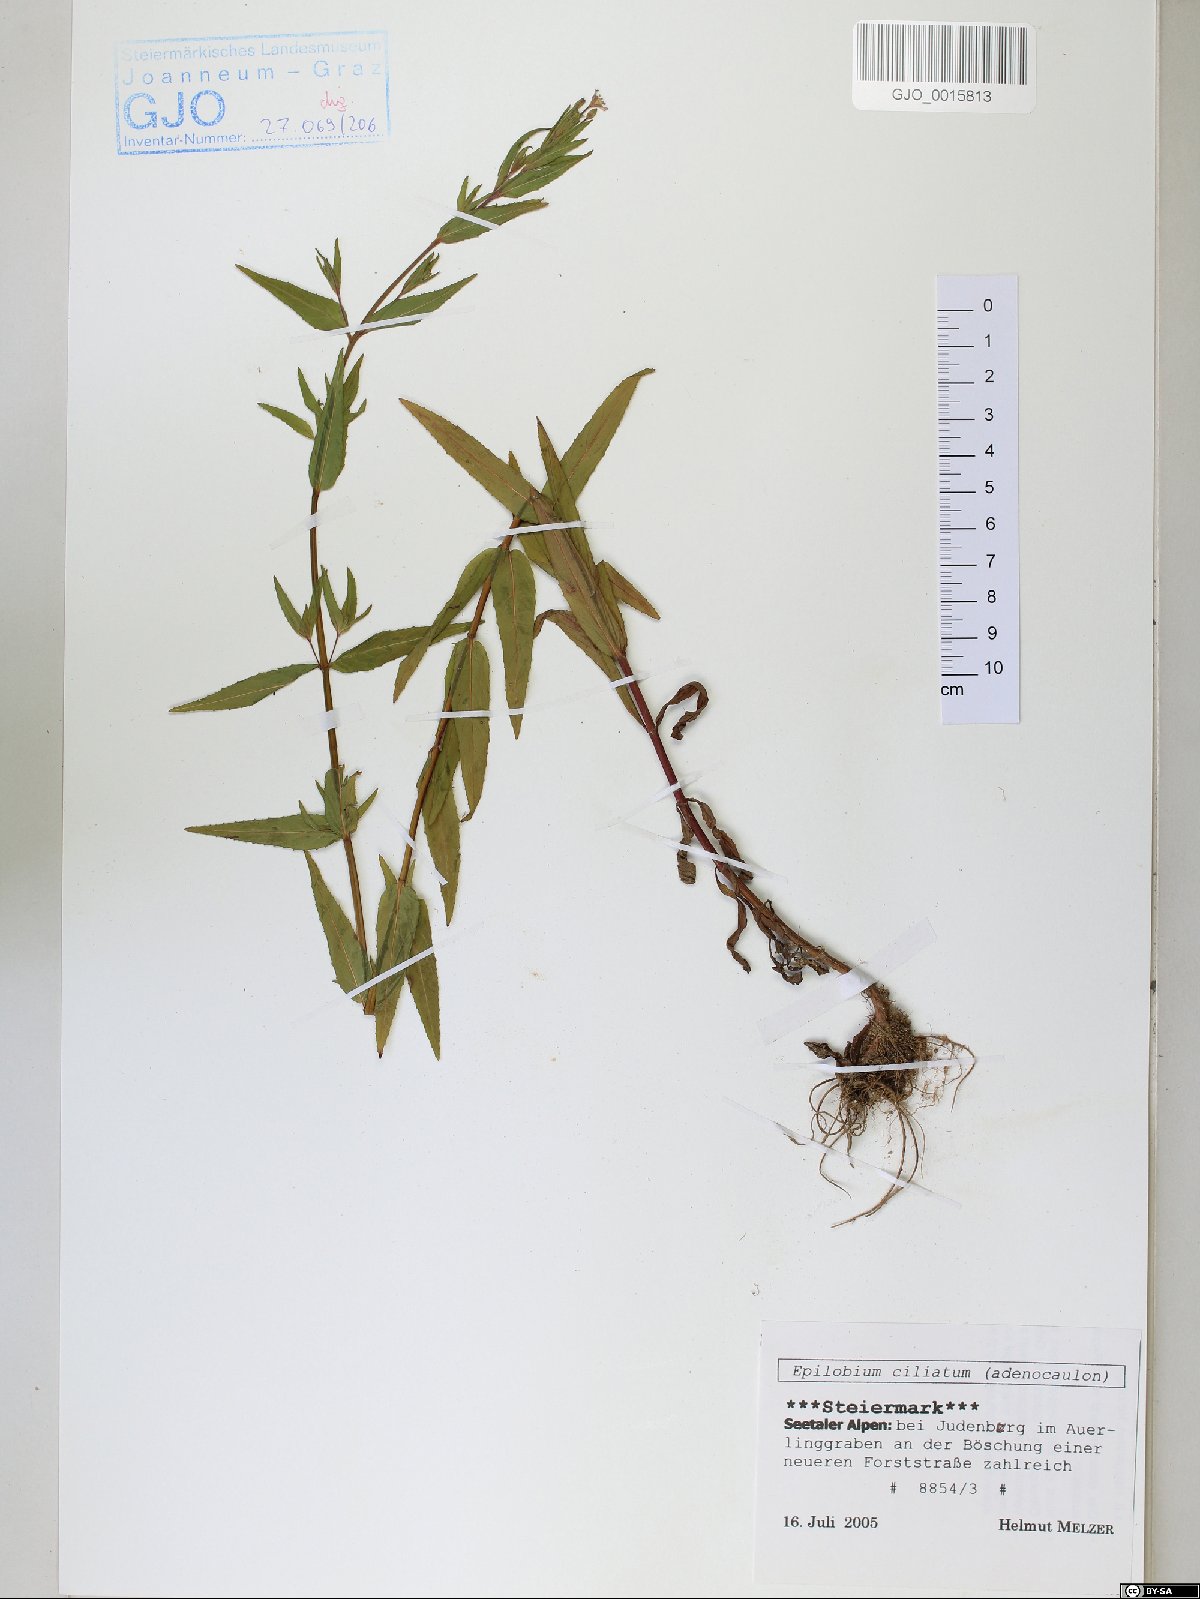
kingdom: Plantae
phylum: Tracheophyta
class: Magnoliopsida
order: Myrtales
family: Onagraceae
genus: Epilobium
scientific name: Epilobium ciliatum
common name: American willowherb
